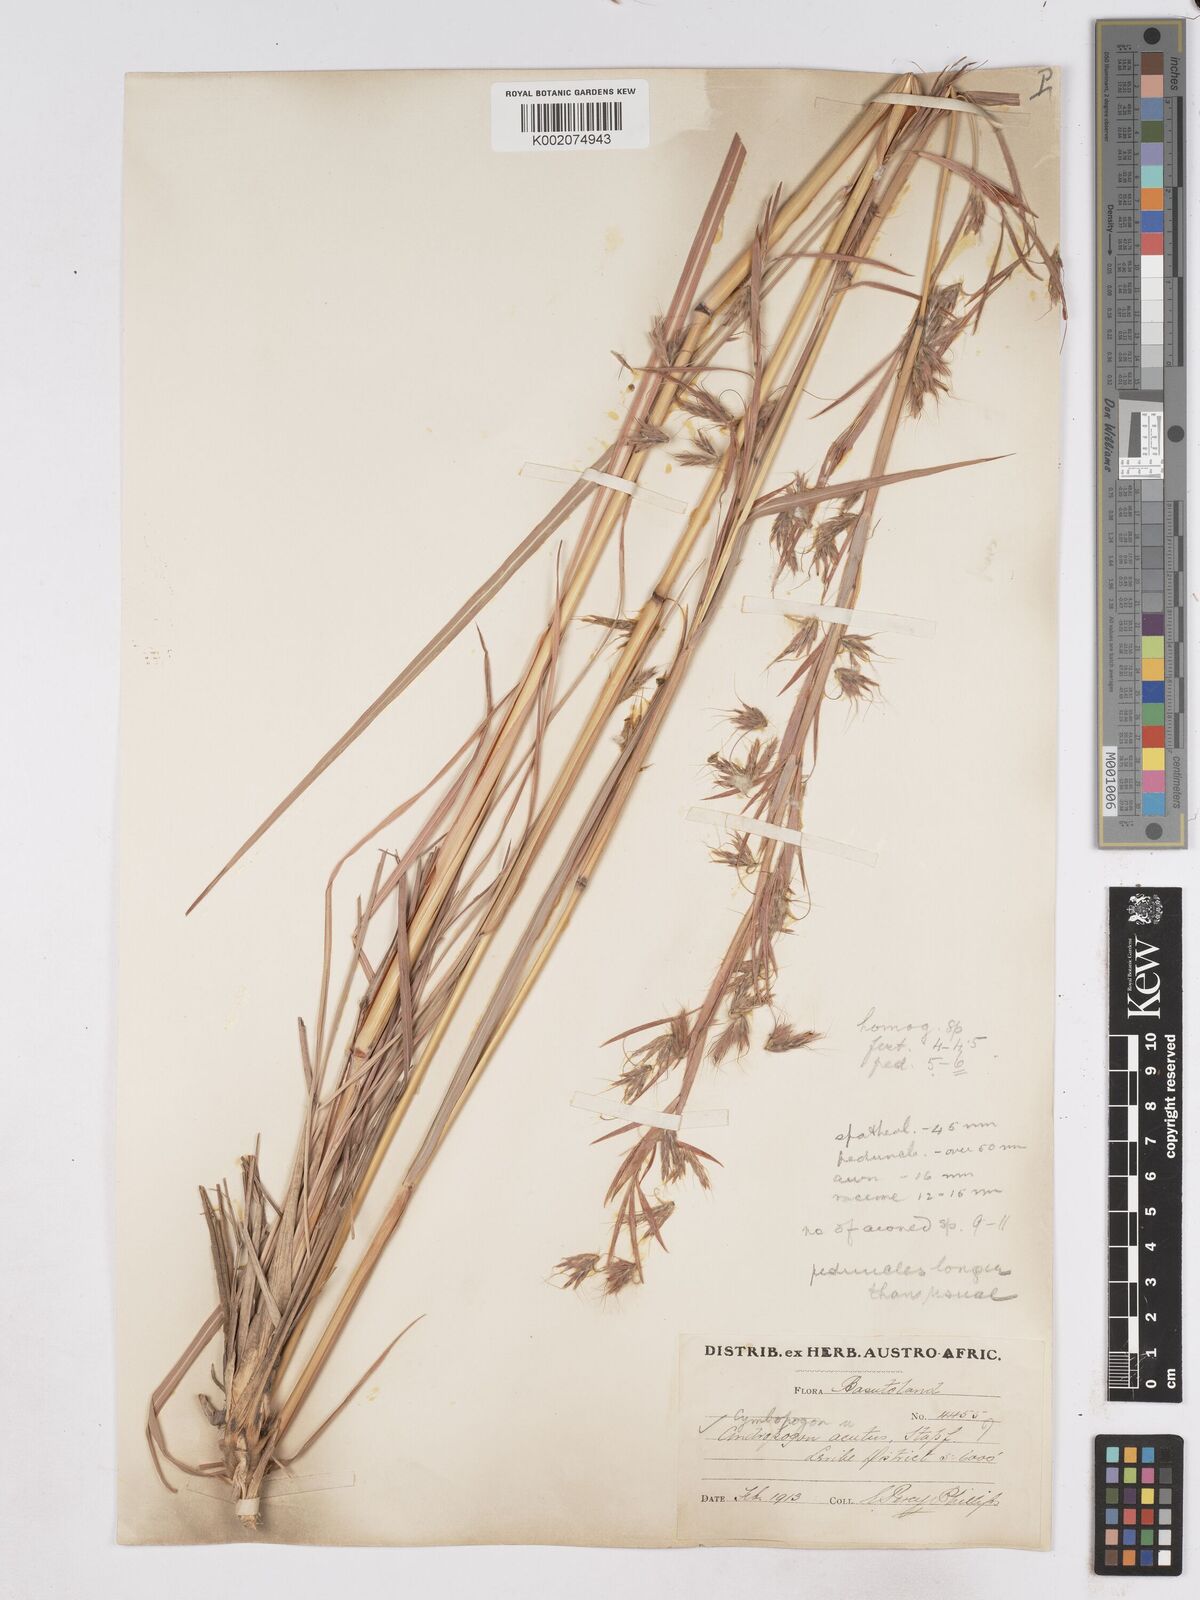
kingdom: Plantae
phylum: Tracheophyta
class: Liliopsida
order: Poales
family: Poaceae
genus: Hyparrhenia
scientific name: Hyparrhenia dregeana
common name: Silky thatching grass
